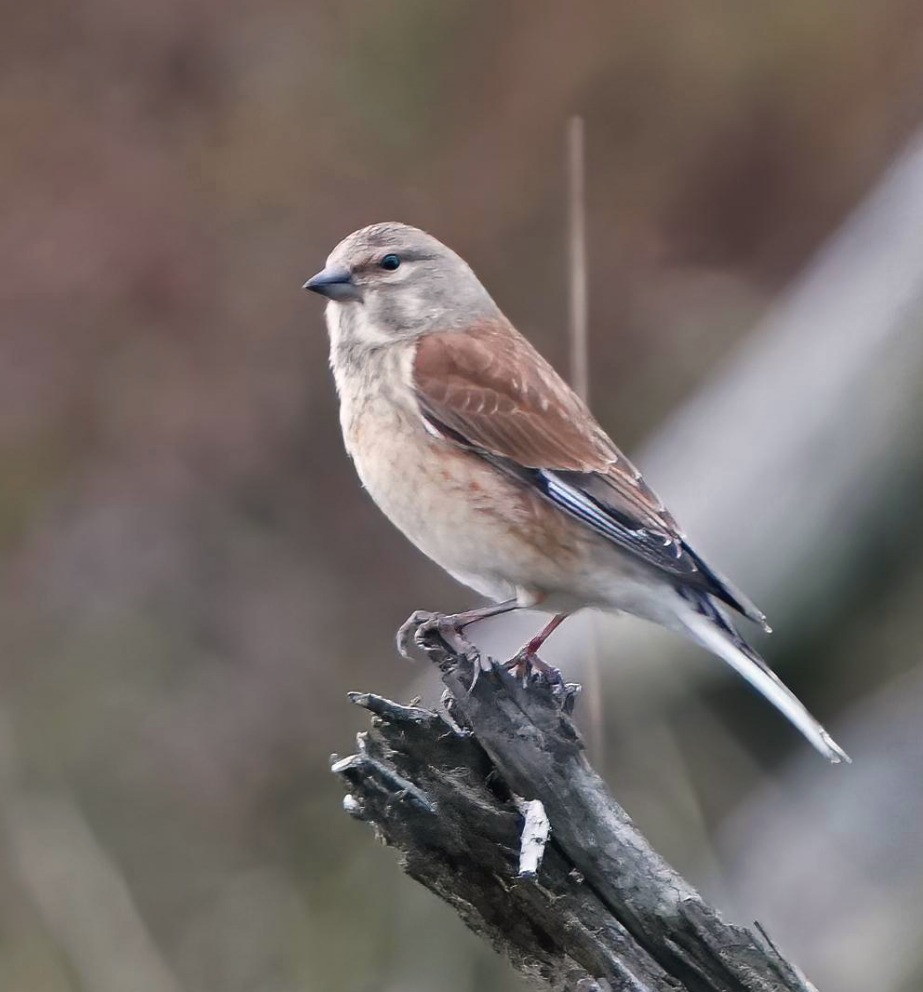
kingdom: Animalia
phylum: Chordata
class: Aves
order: Passeriformes
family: Fringillidae
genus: Linaria
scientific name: Linaria cannabina
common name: Tornirisk
